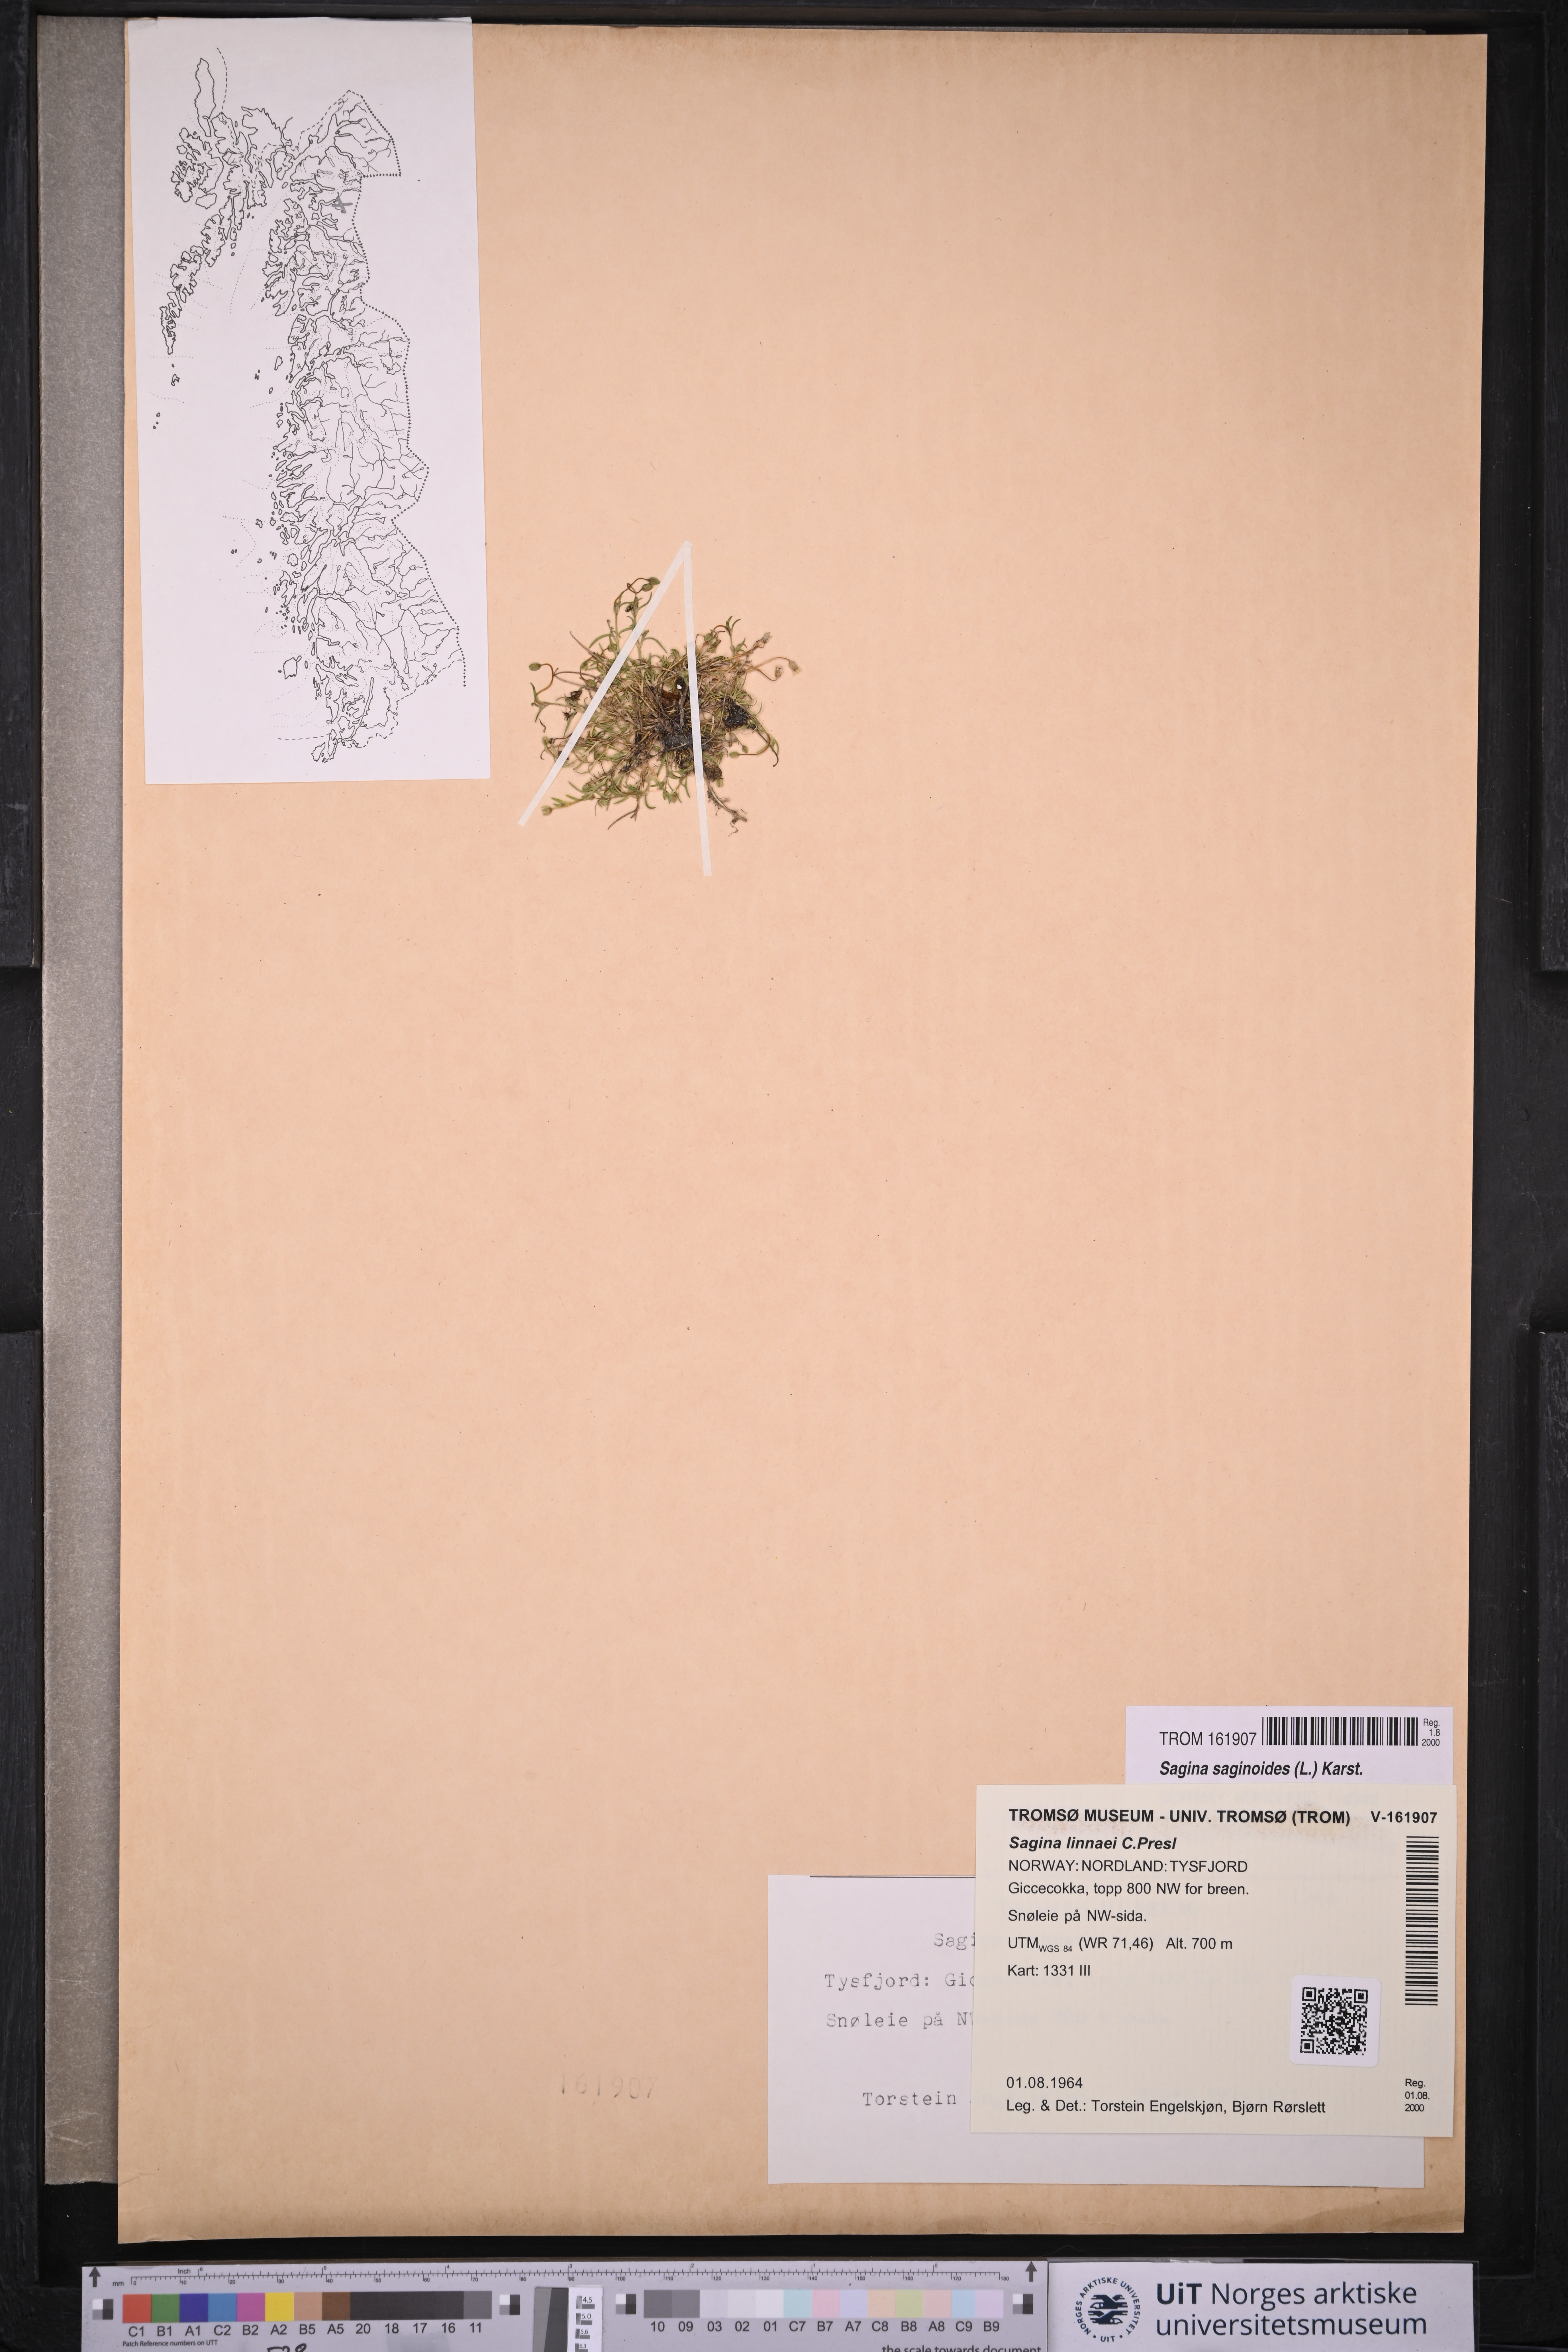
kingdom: Plantae
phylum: Tracheophyta
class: Magnoliopsida
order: Caryophyllales
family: Caryophyllaceae
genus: Sagina
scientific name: Sagina saginoides
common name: Alpine pearlwort
